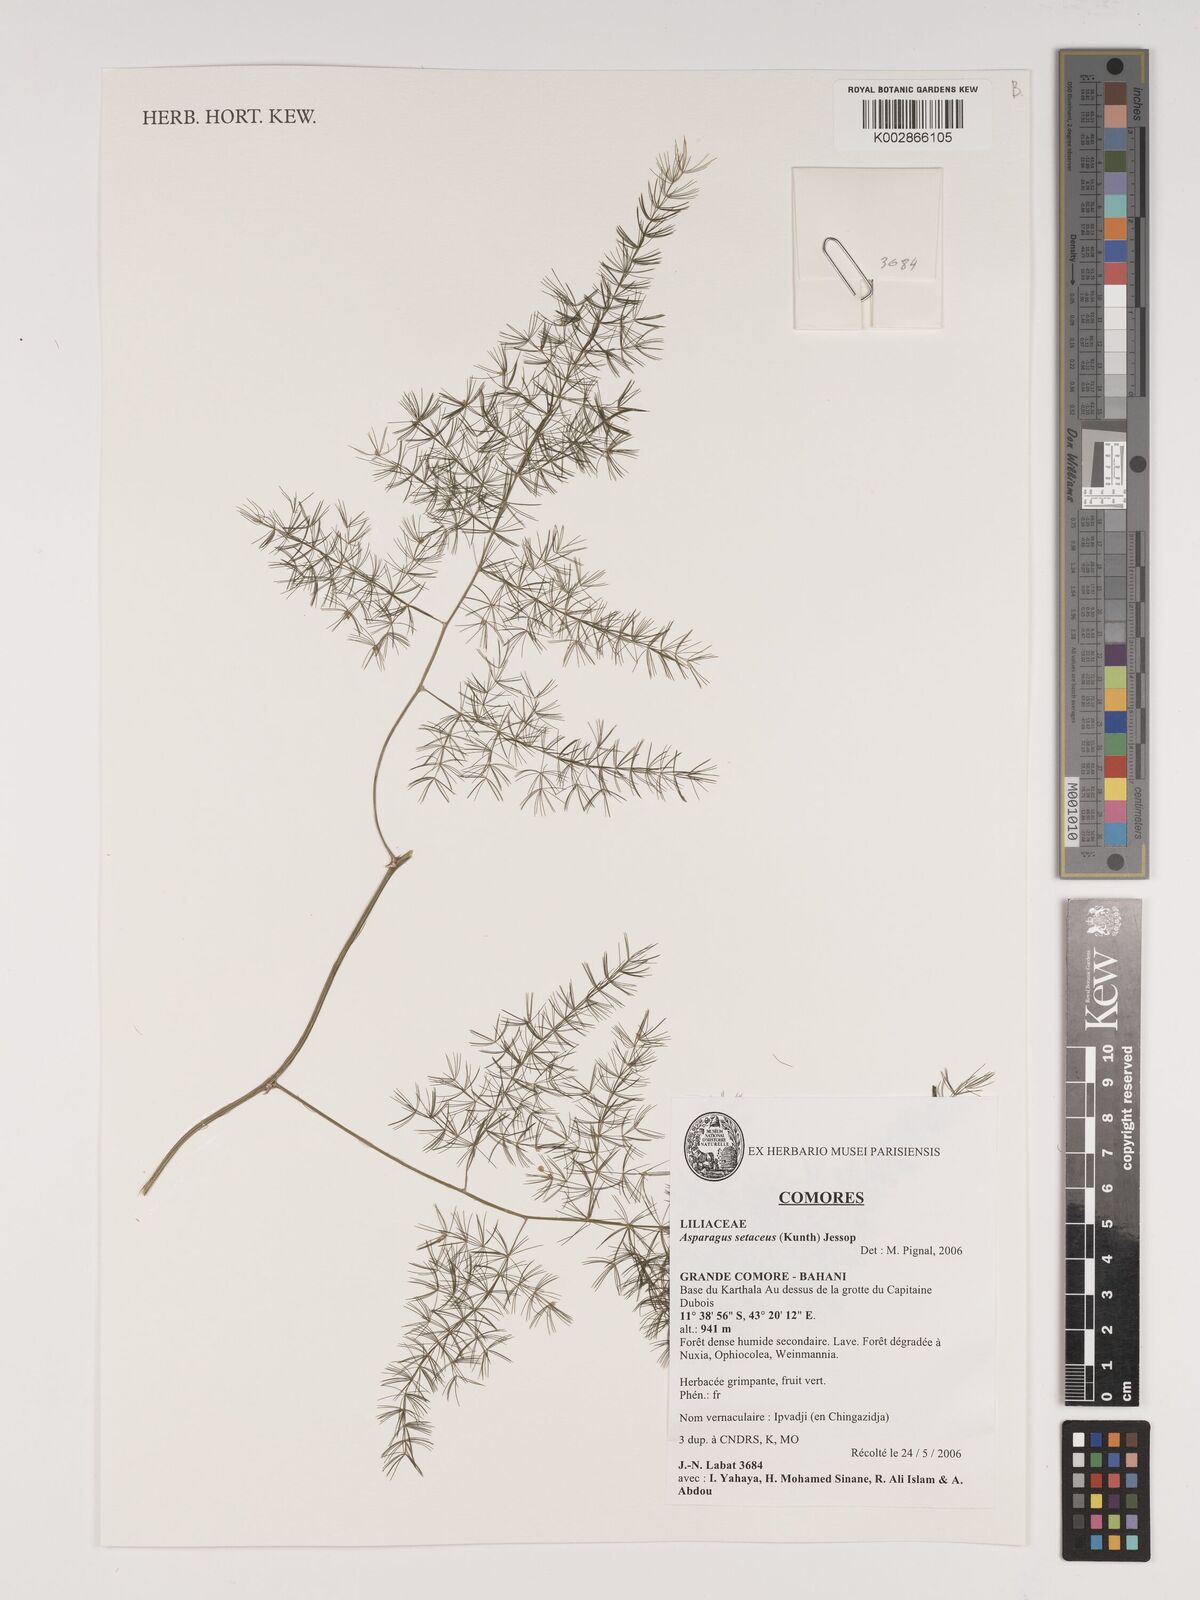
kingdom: Plantae
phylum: Tracheophyta
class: Liliopsida
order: Asparagales
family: Asparagaceae
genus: Asparagus
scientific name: Asparagus setaceus
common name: Common asparagus fern
